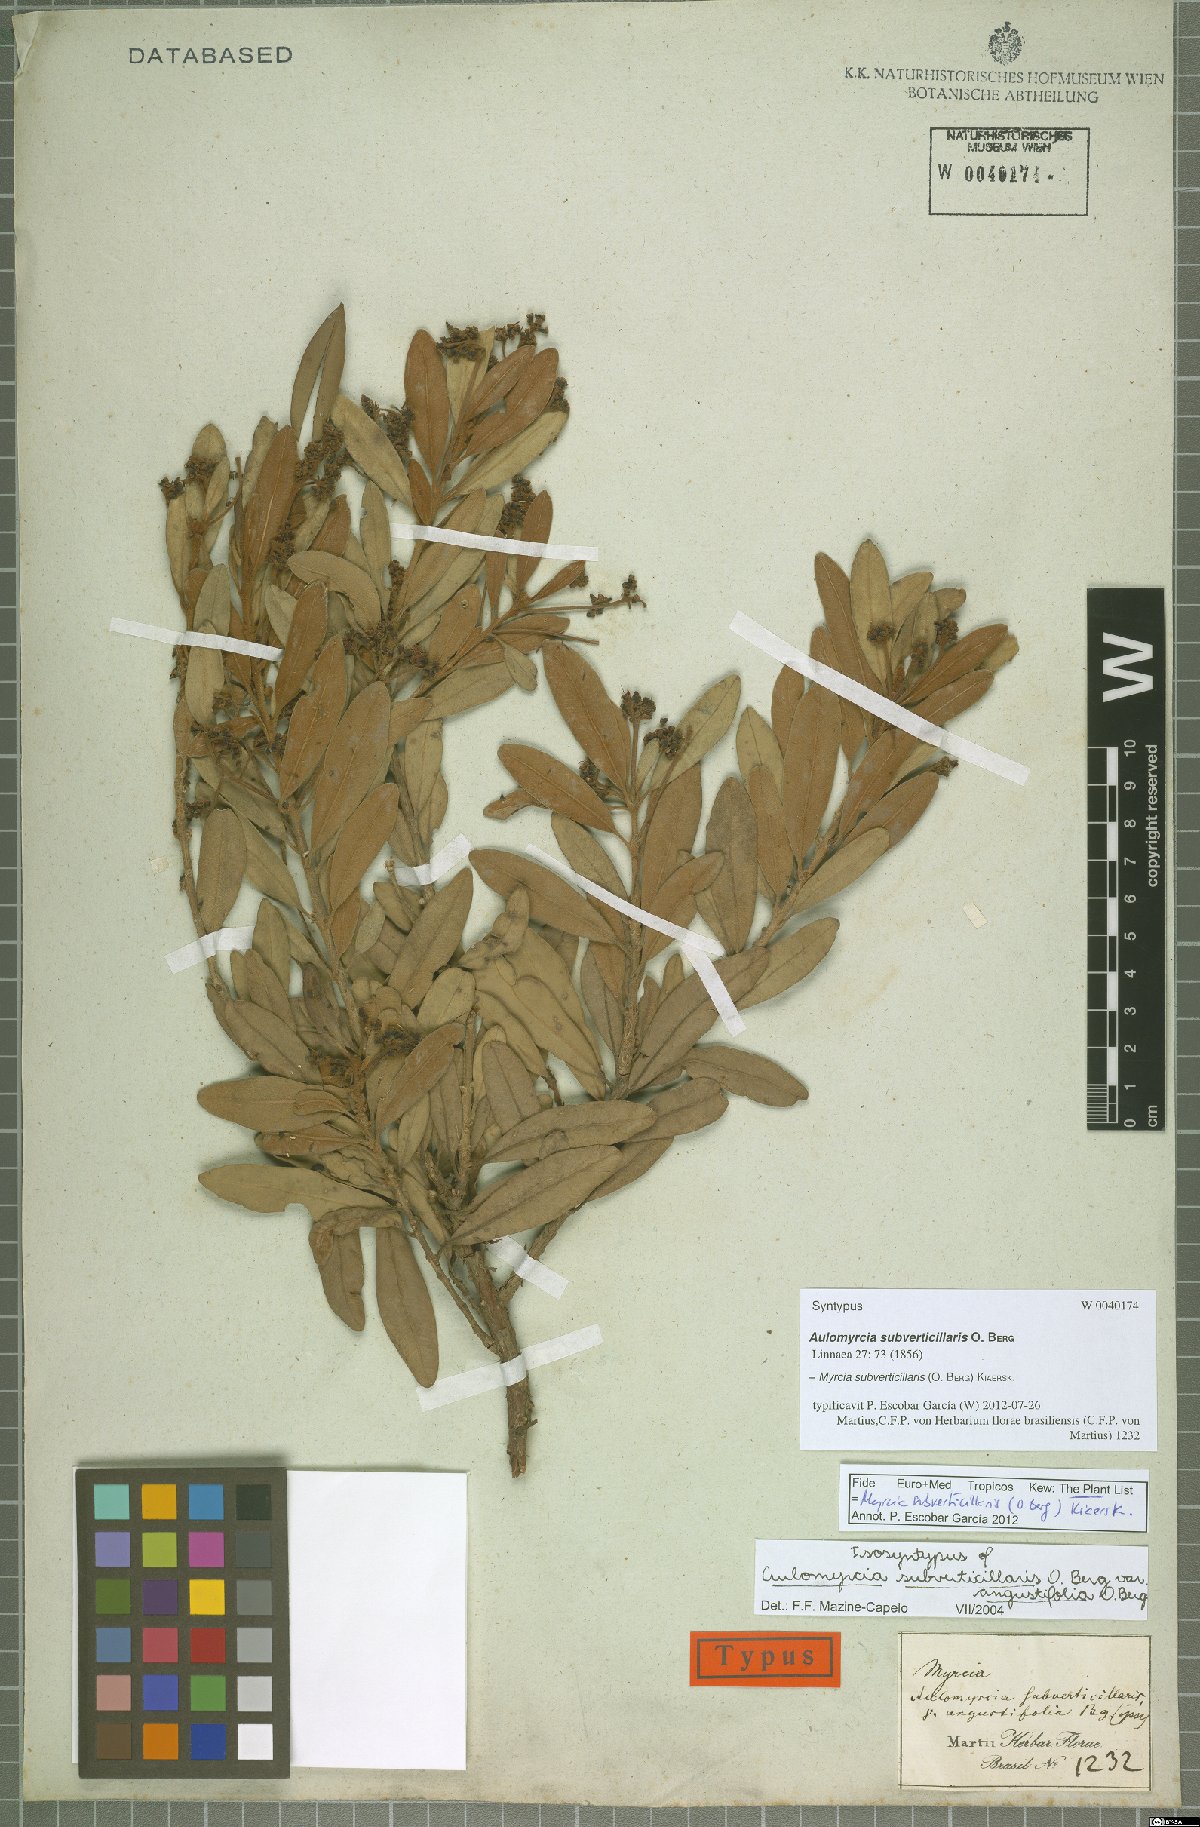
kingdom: Plantae
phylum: Tracheophyta
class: Magnoliopsida
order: Myrtales
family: Myrtaceae
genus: Myrcia
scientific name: Myrcia subverticillaris
